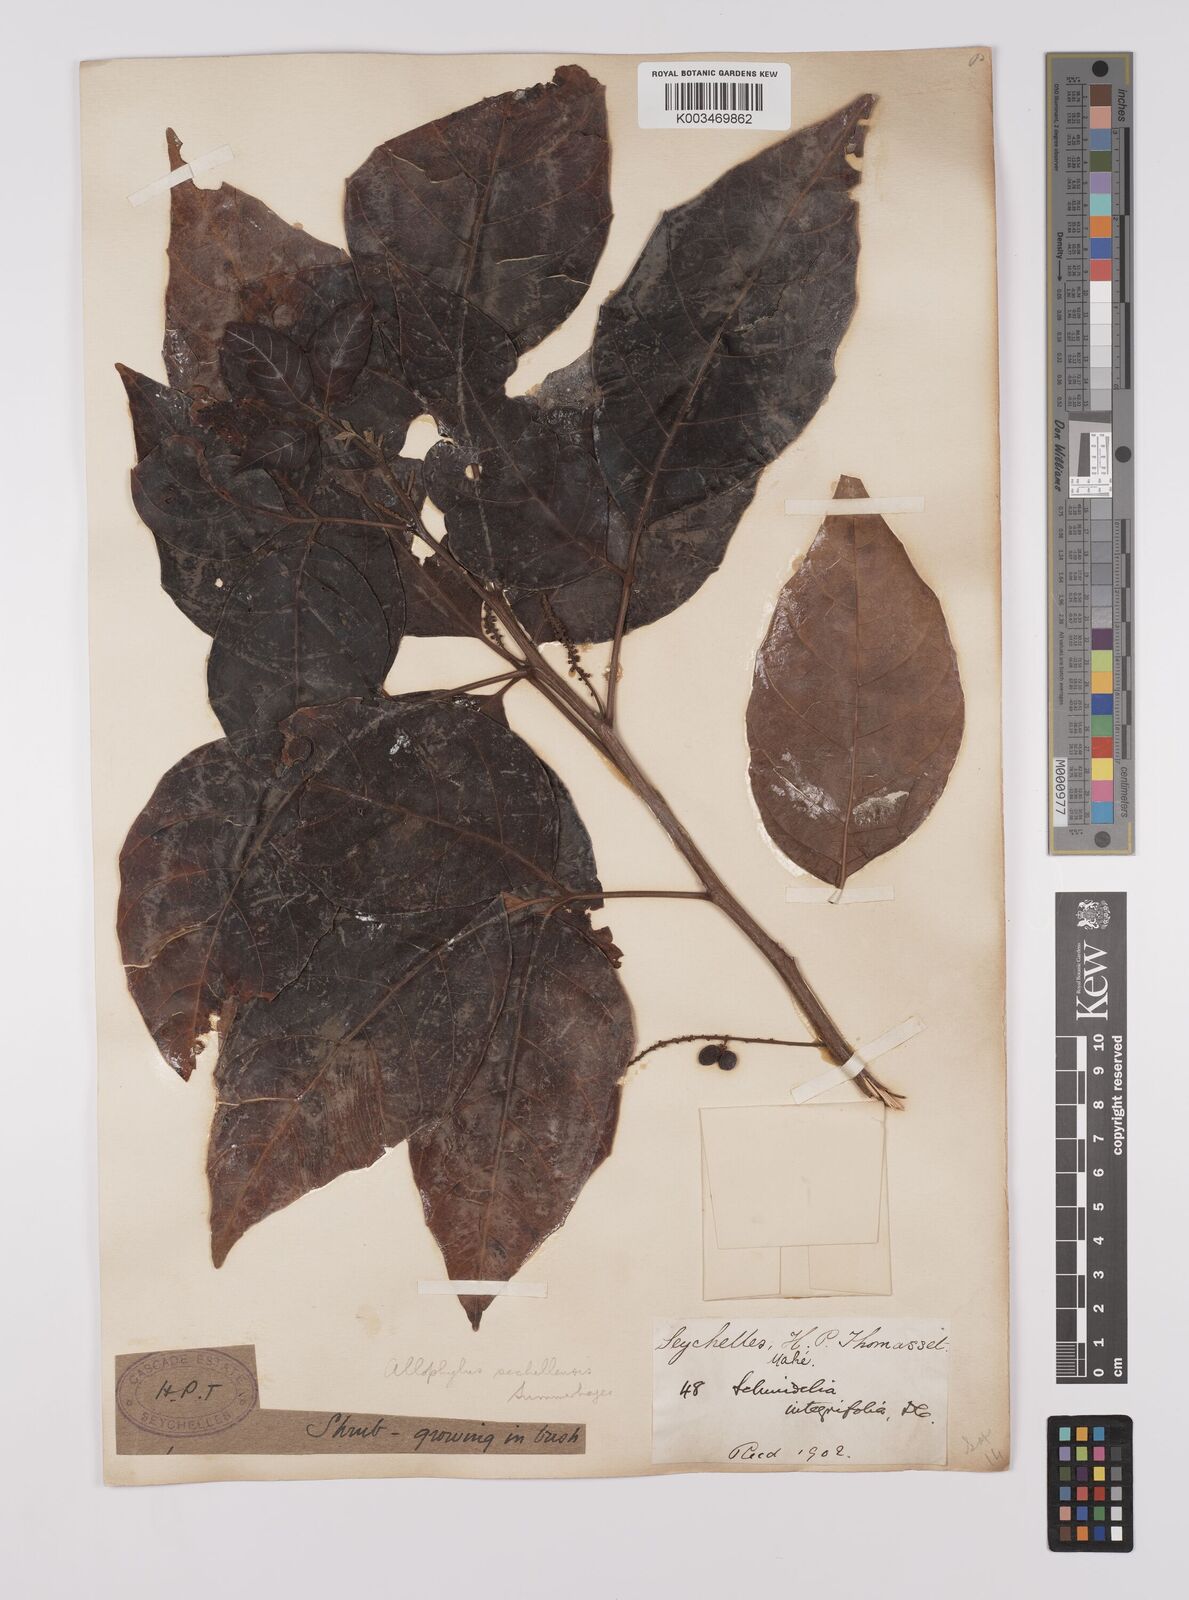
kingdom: Plantae
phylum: Tracheophyta
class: Magnoliopsida
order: Sapindales
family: Sapindaceae
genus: Allophylus
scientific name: Allophylus sechellensis
